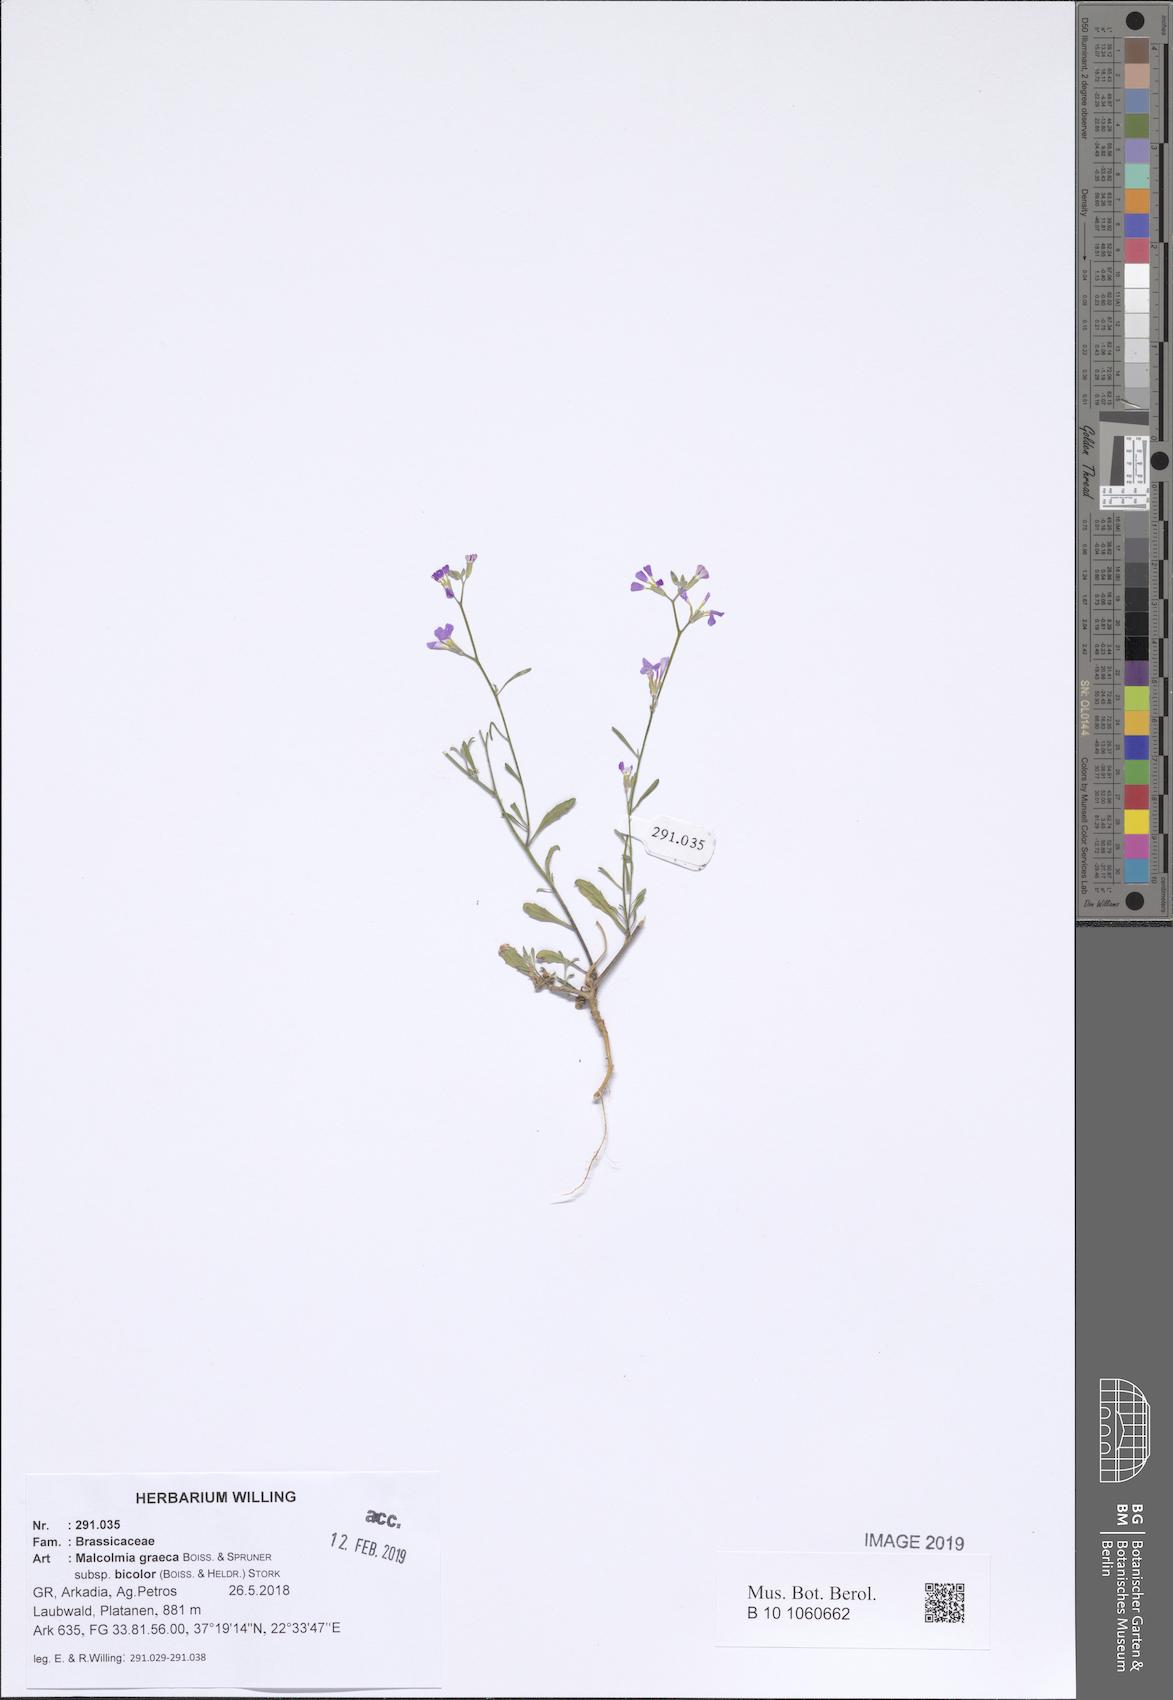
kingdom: Plantae
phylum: Tracheophyta
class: Magnoliopsida
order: Brassicales
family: Brassicaceae
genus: Malcolmia
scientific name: Malcolmia graeca
